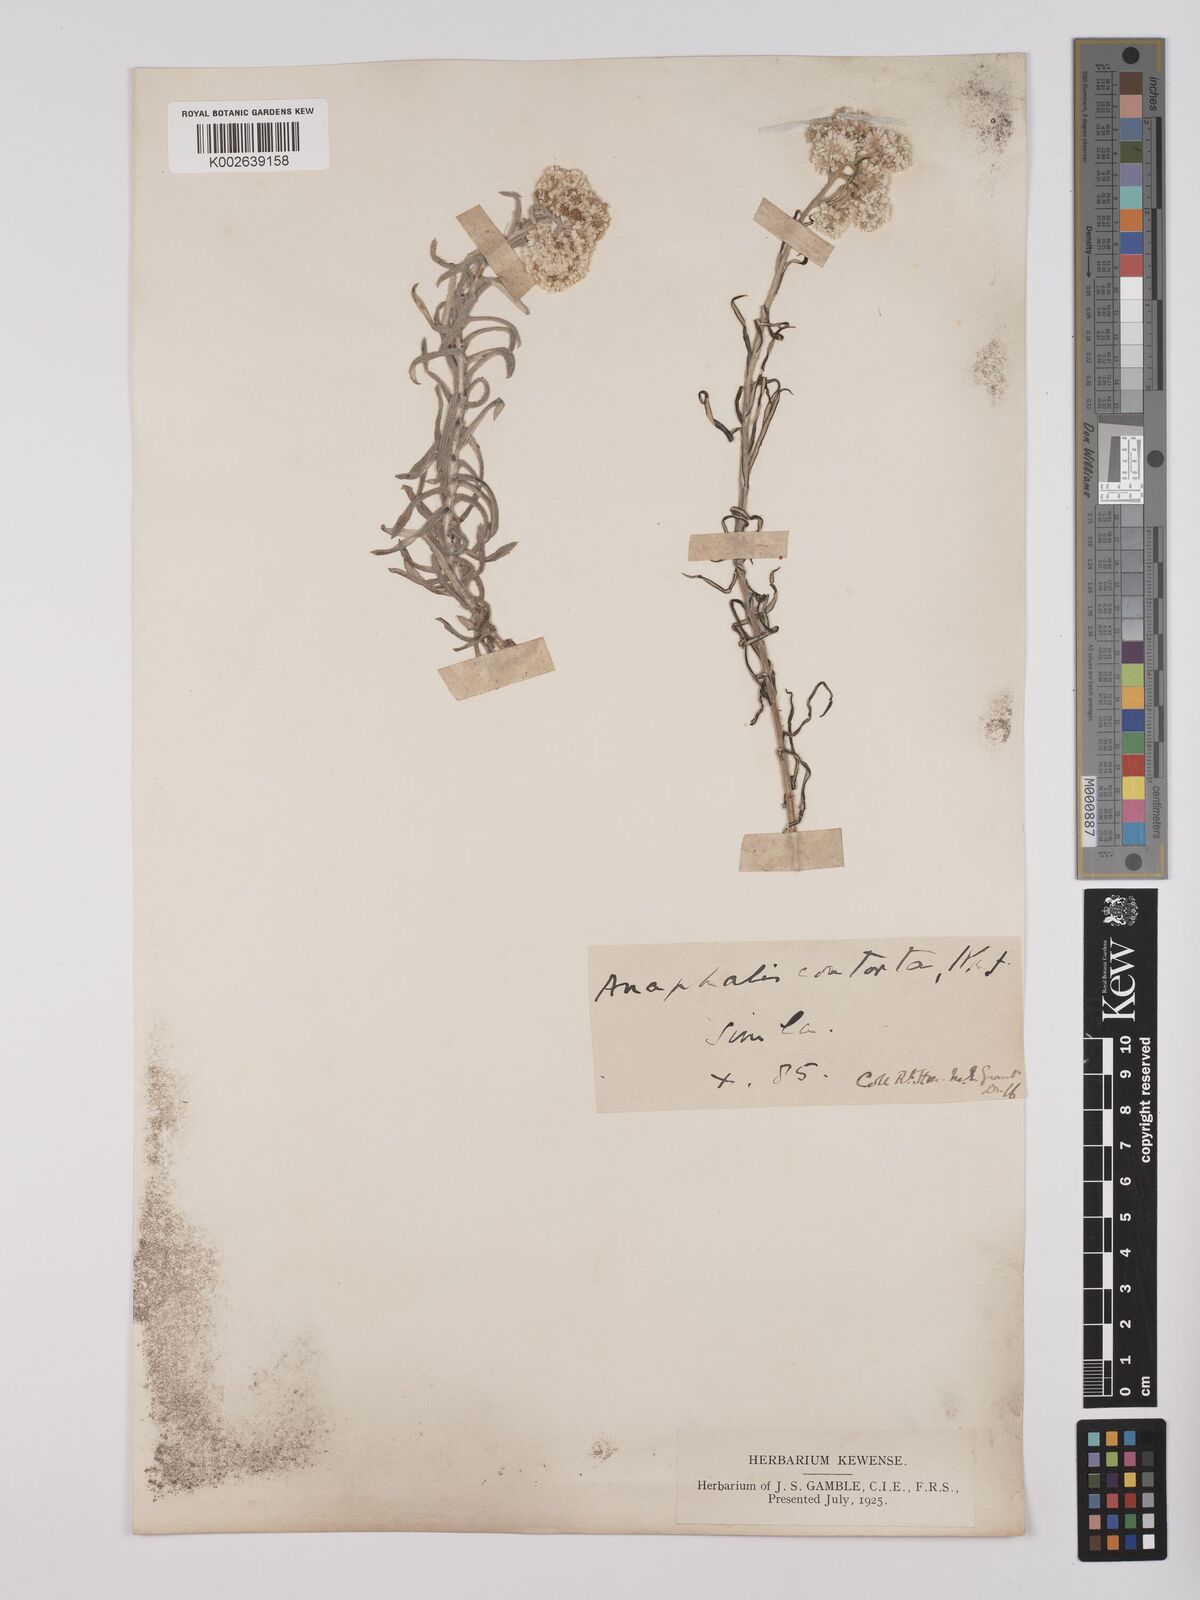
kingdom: Plantae
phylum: Tracheophyta
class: Magnoliopsida
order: Asterales
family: Asteraceae
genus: Anaphalis
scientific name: Anaphalis contorta
